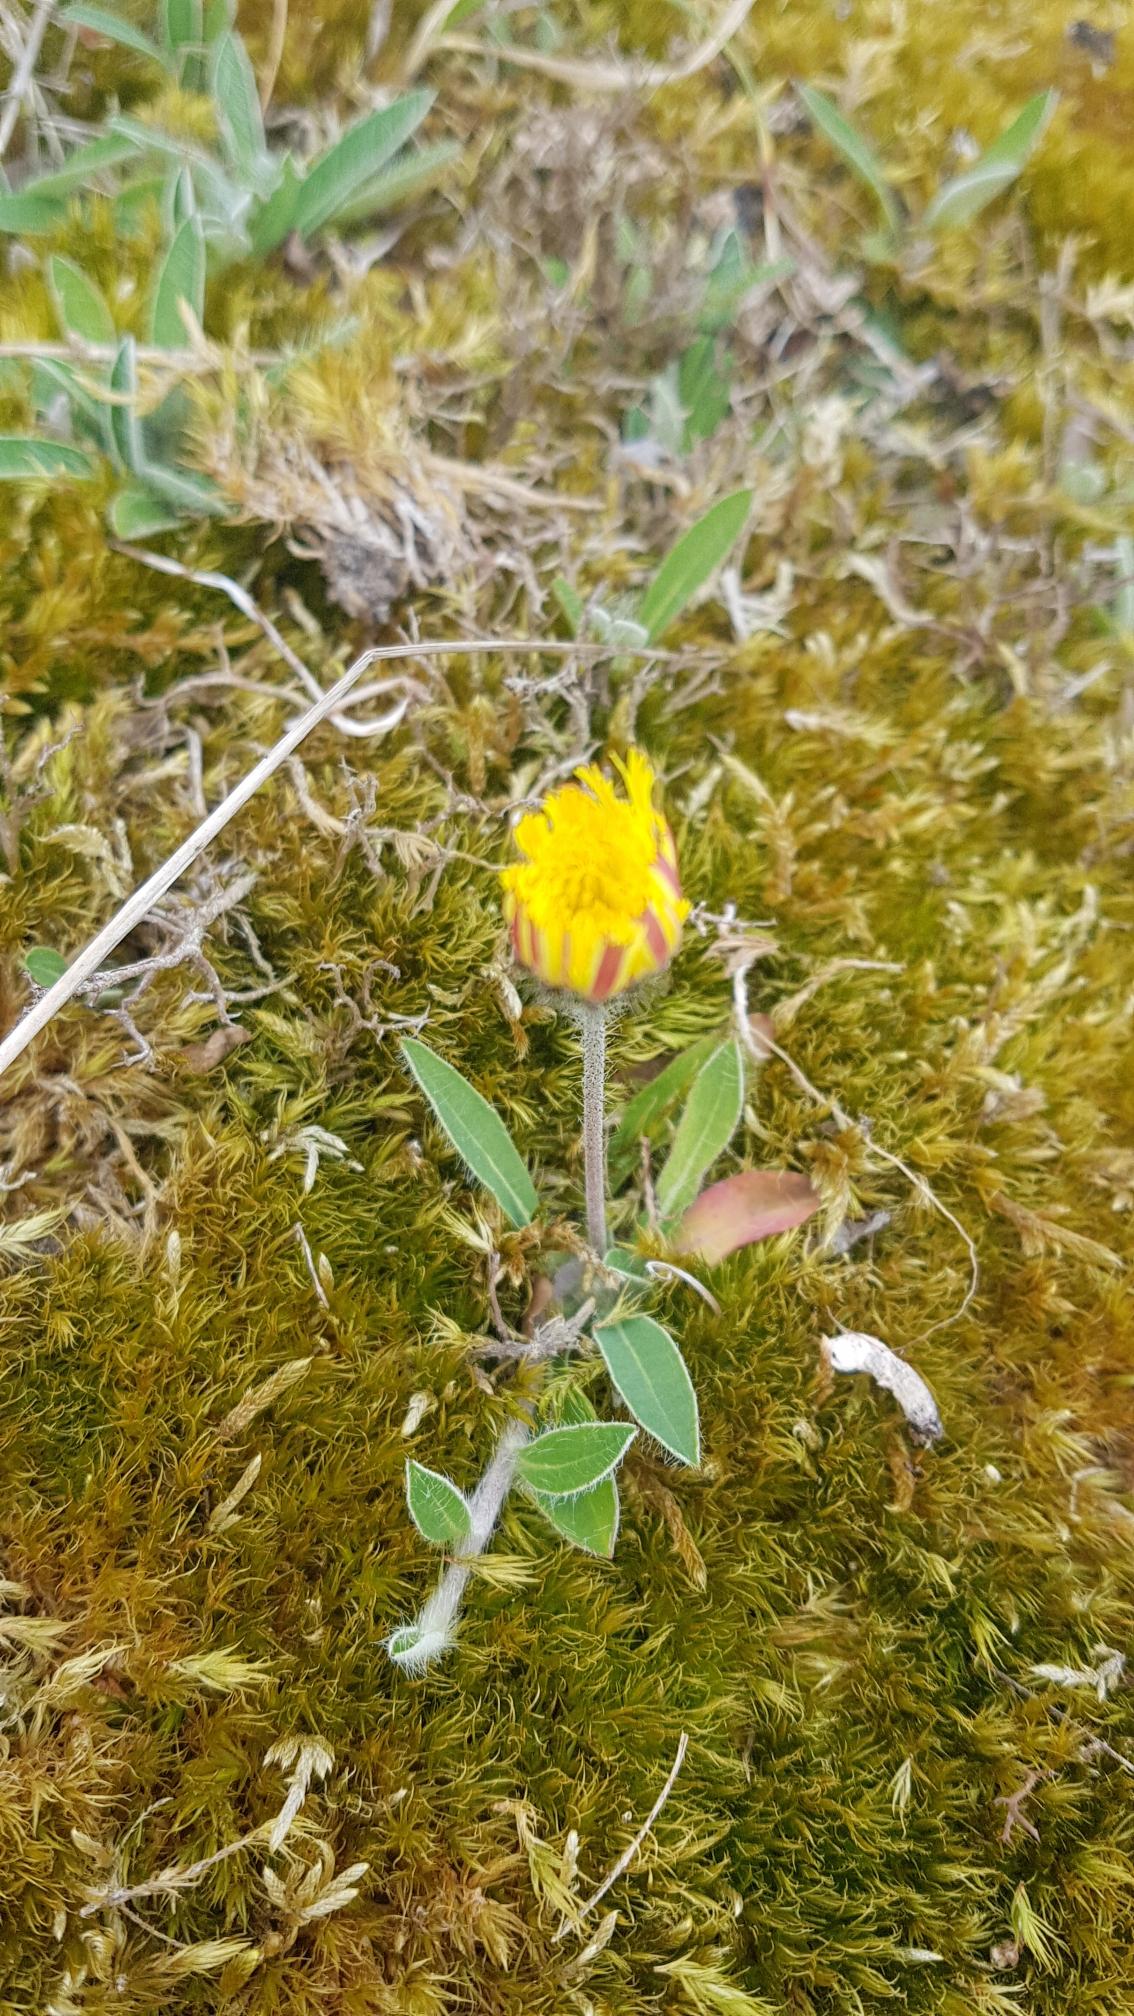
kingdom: Plantae
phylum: Tracheophyta
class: Magnoliopsida
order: Asterales
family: Asteraceae
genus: Pilosella
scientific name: Pilosella officinarum
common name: Håret høgeurt
